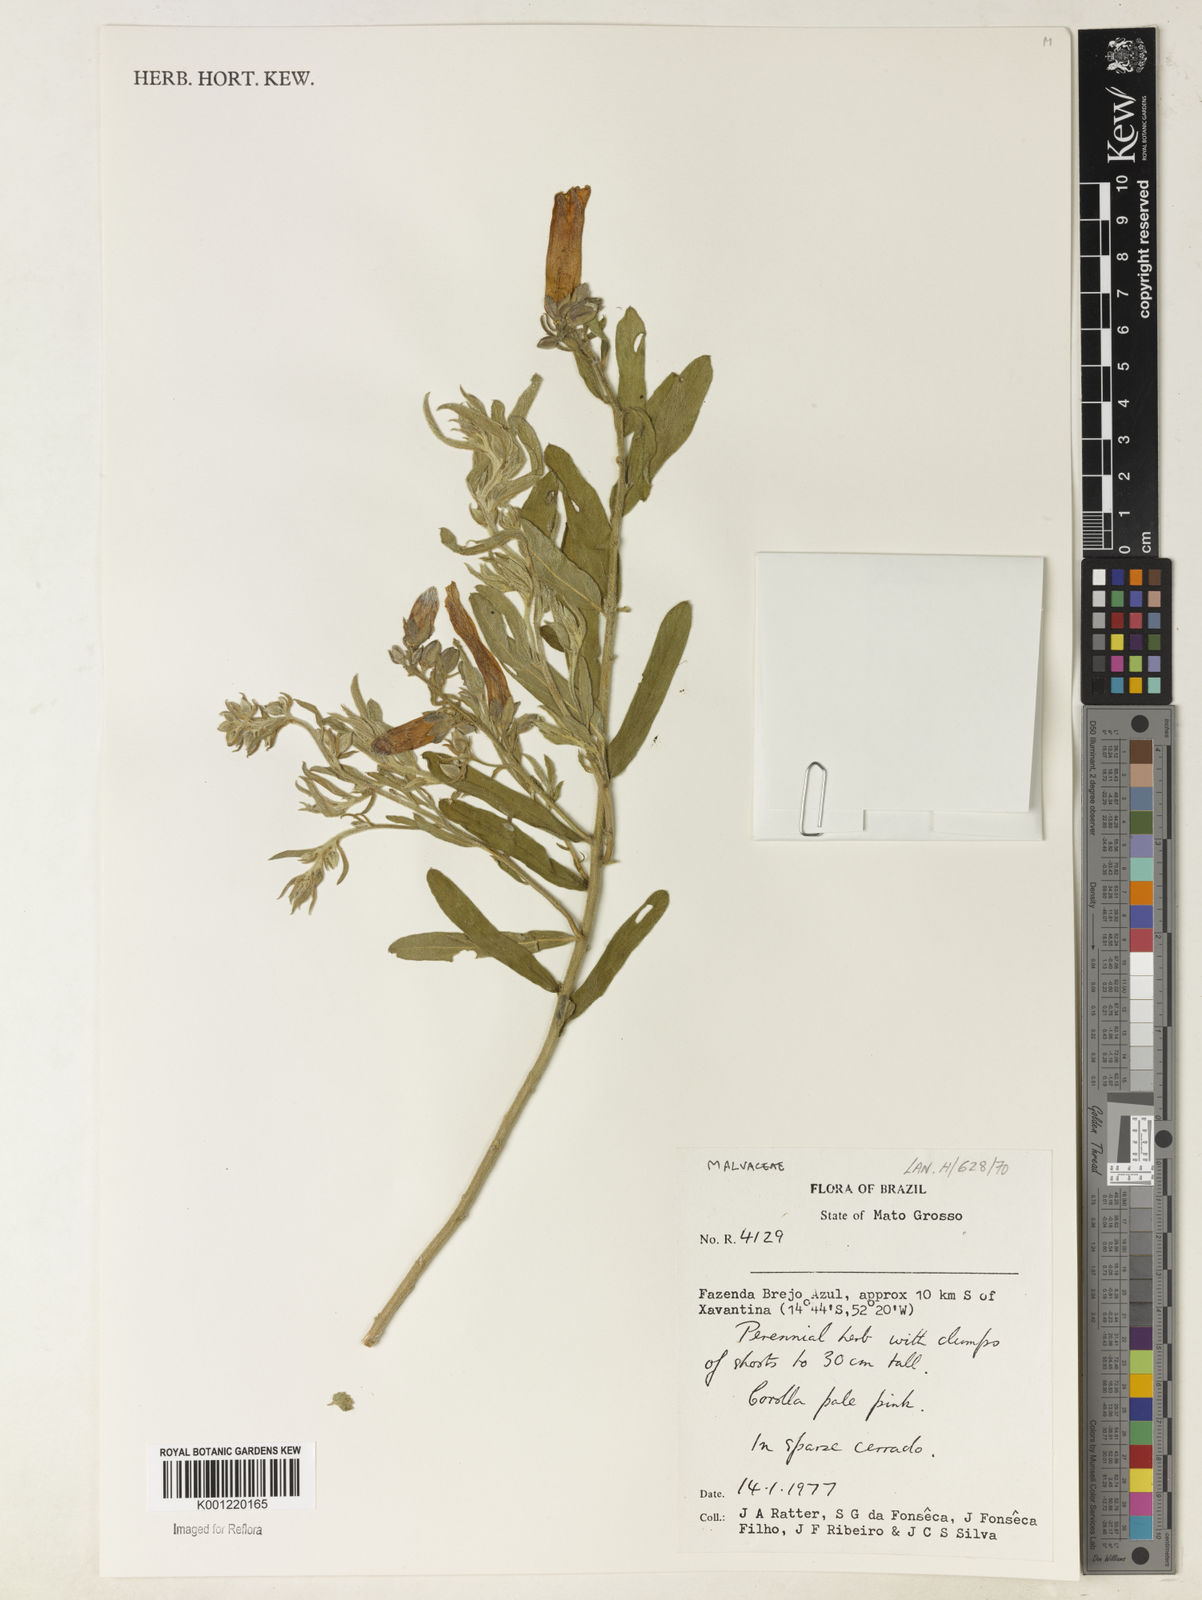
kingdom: Plantae
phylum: Tracheophyta
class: Magnoliopsida
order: Malvales
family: Malvaceae
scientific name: Malvaceae
